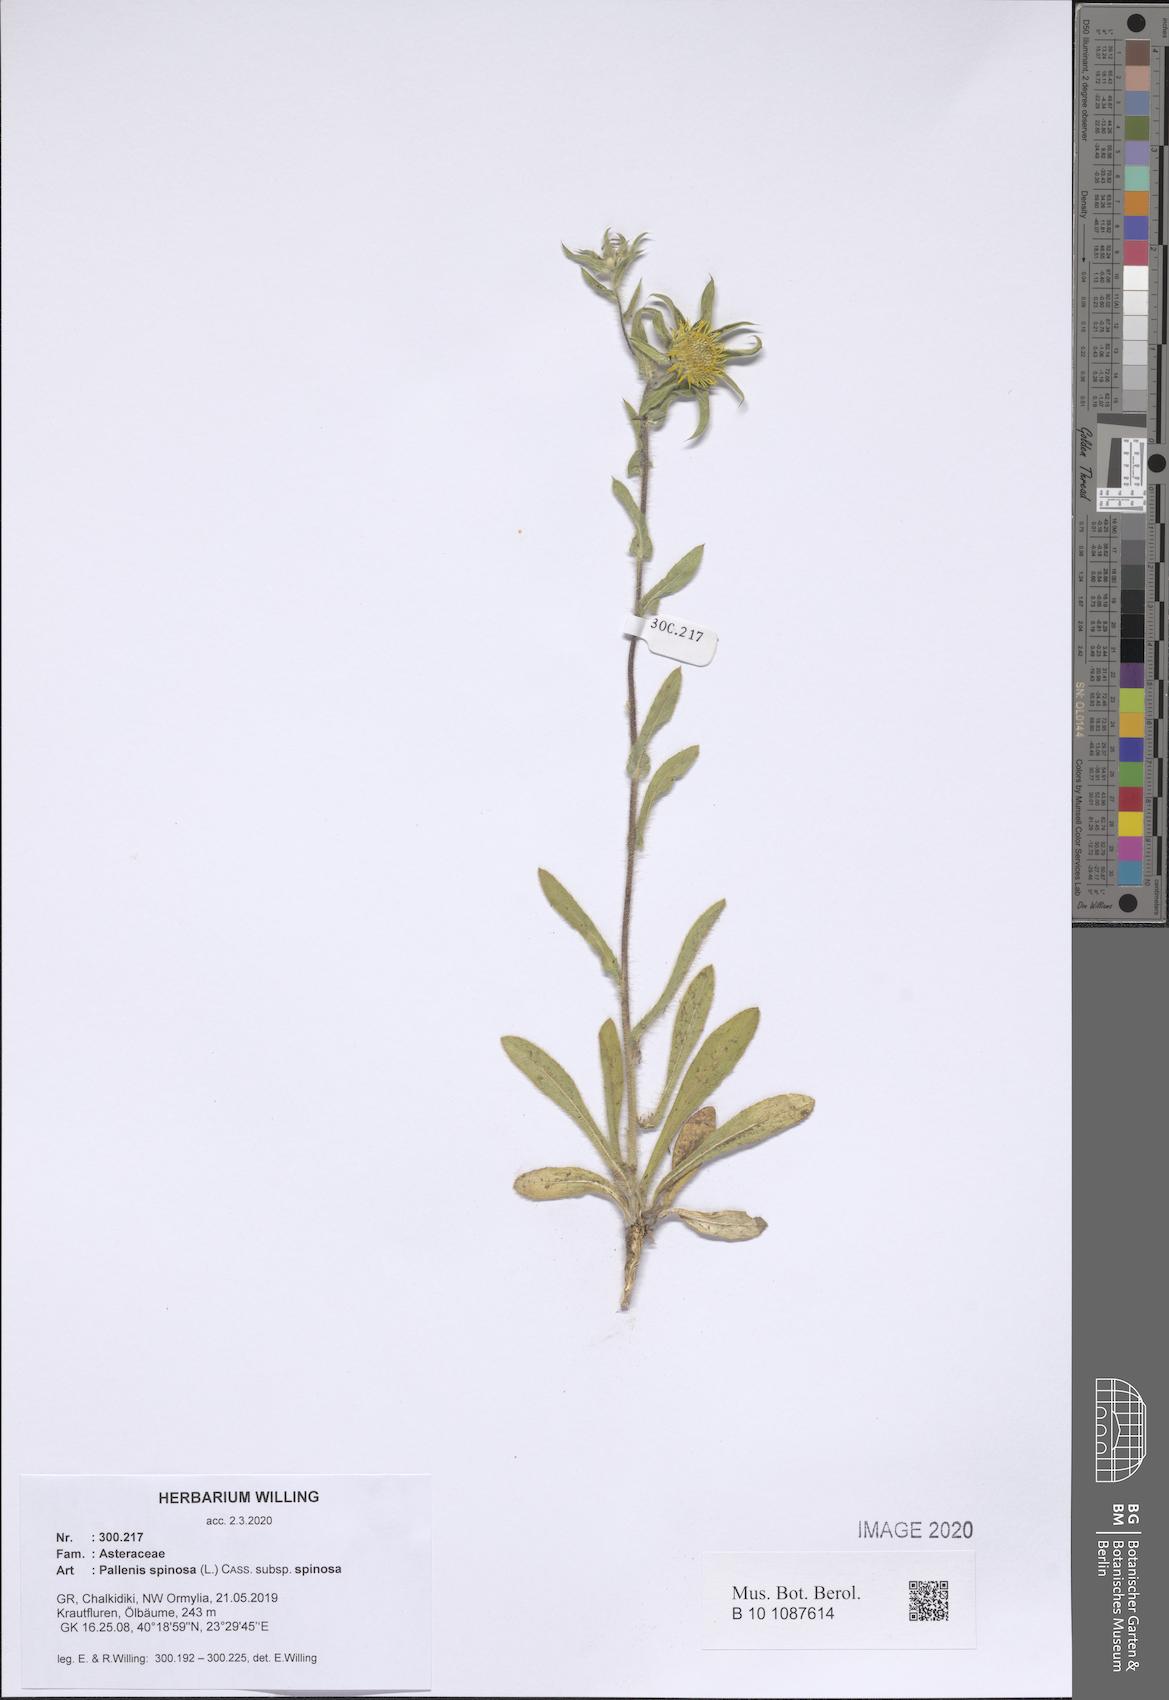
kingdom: Plantae
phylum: Tracheophyta
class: Magnoliopsida
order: Asterales
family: Asteraceae
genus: Pallenis
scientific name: Pallenis spinosa
